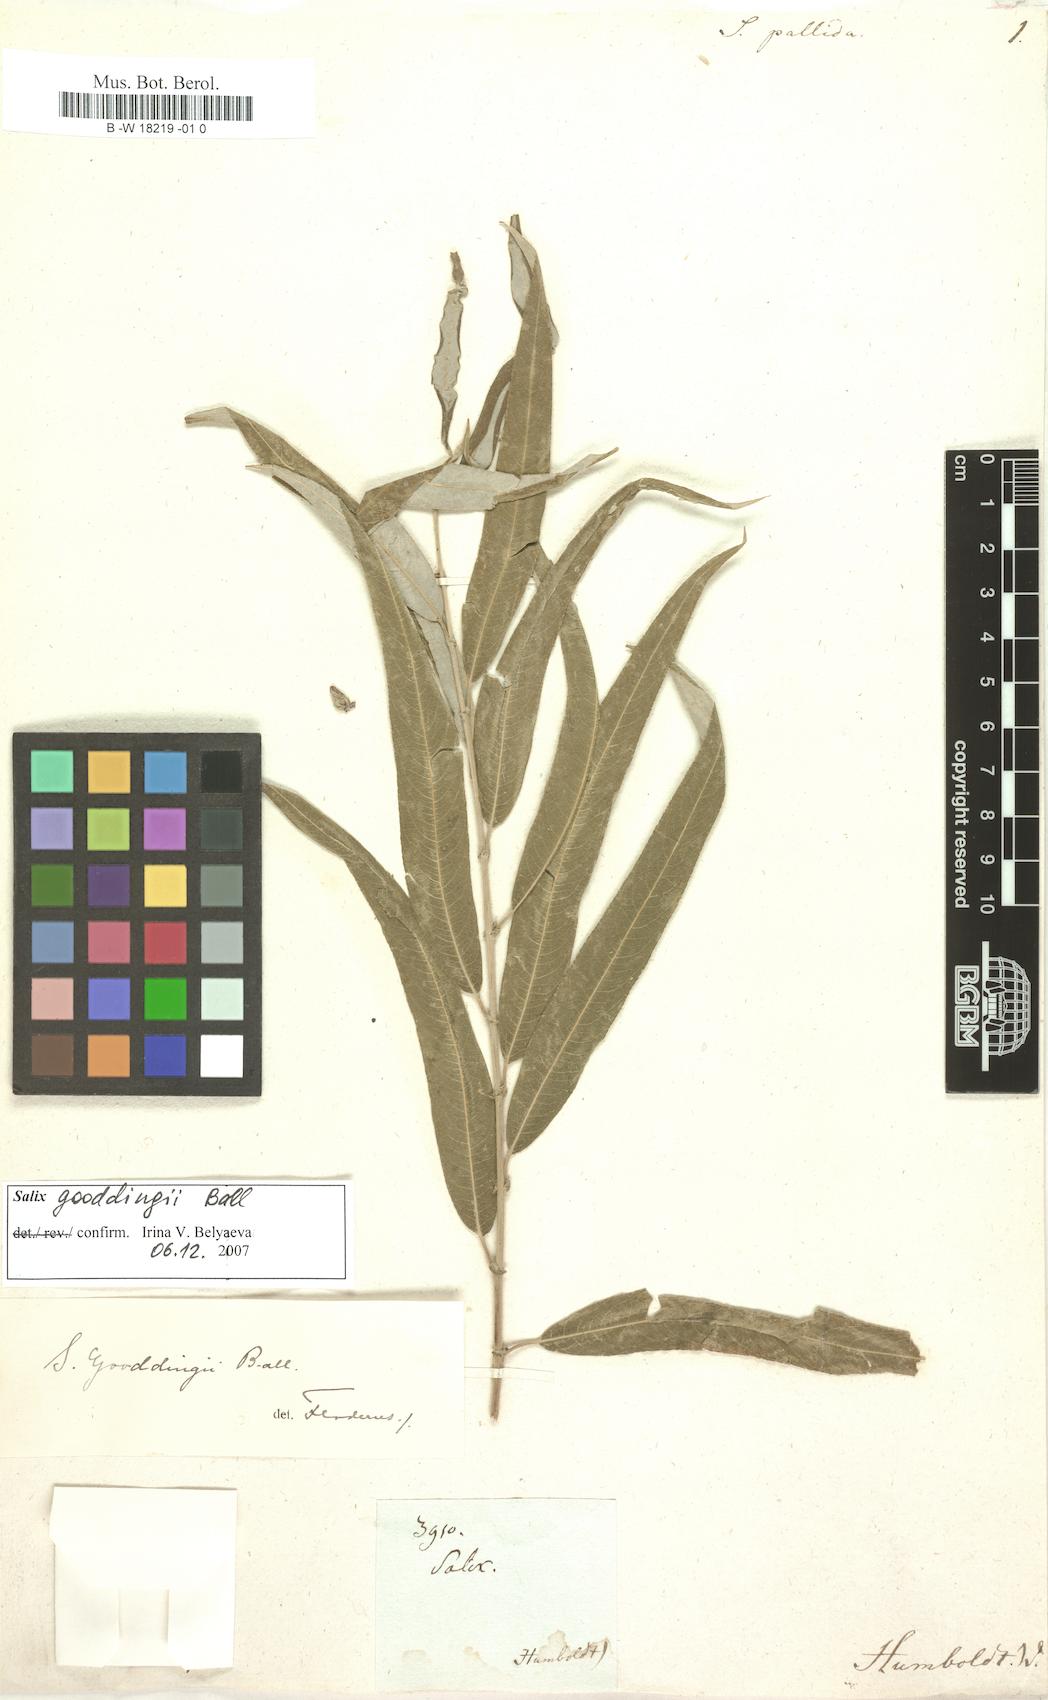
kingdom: Plantae
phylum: Tracheophyta
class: Magnoliopsida
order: Malpighiales
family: Salicaceae
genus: Salix
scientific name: Salix
